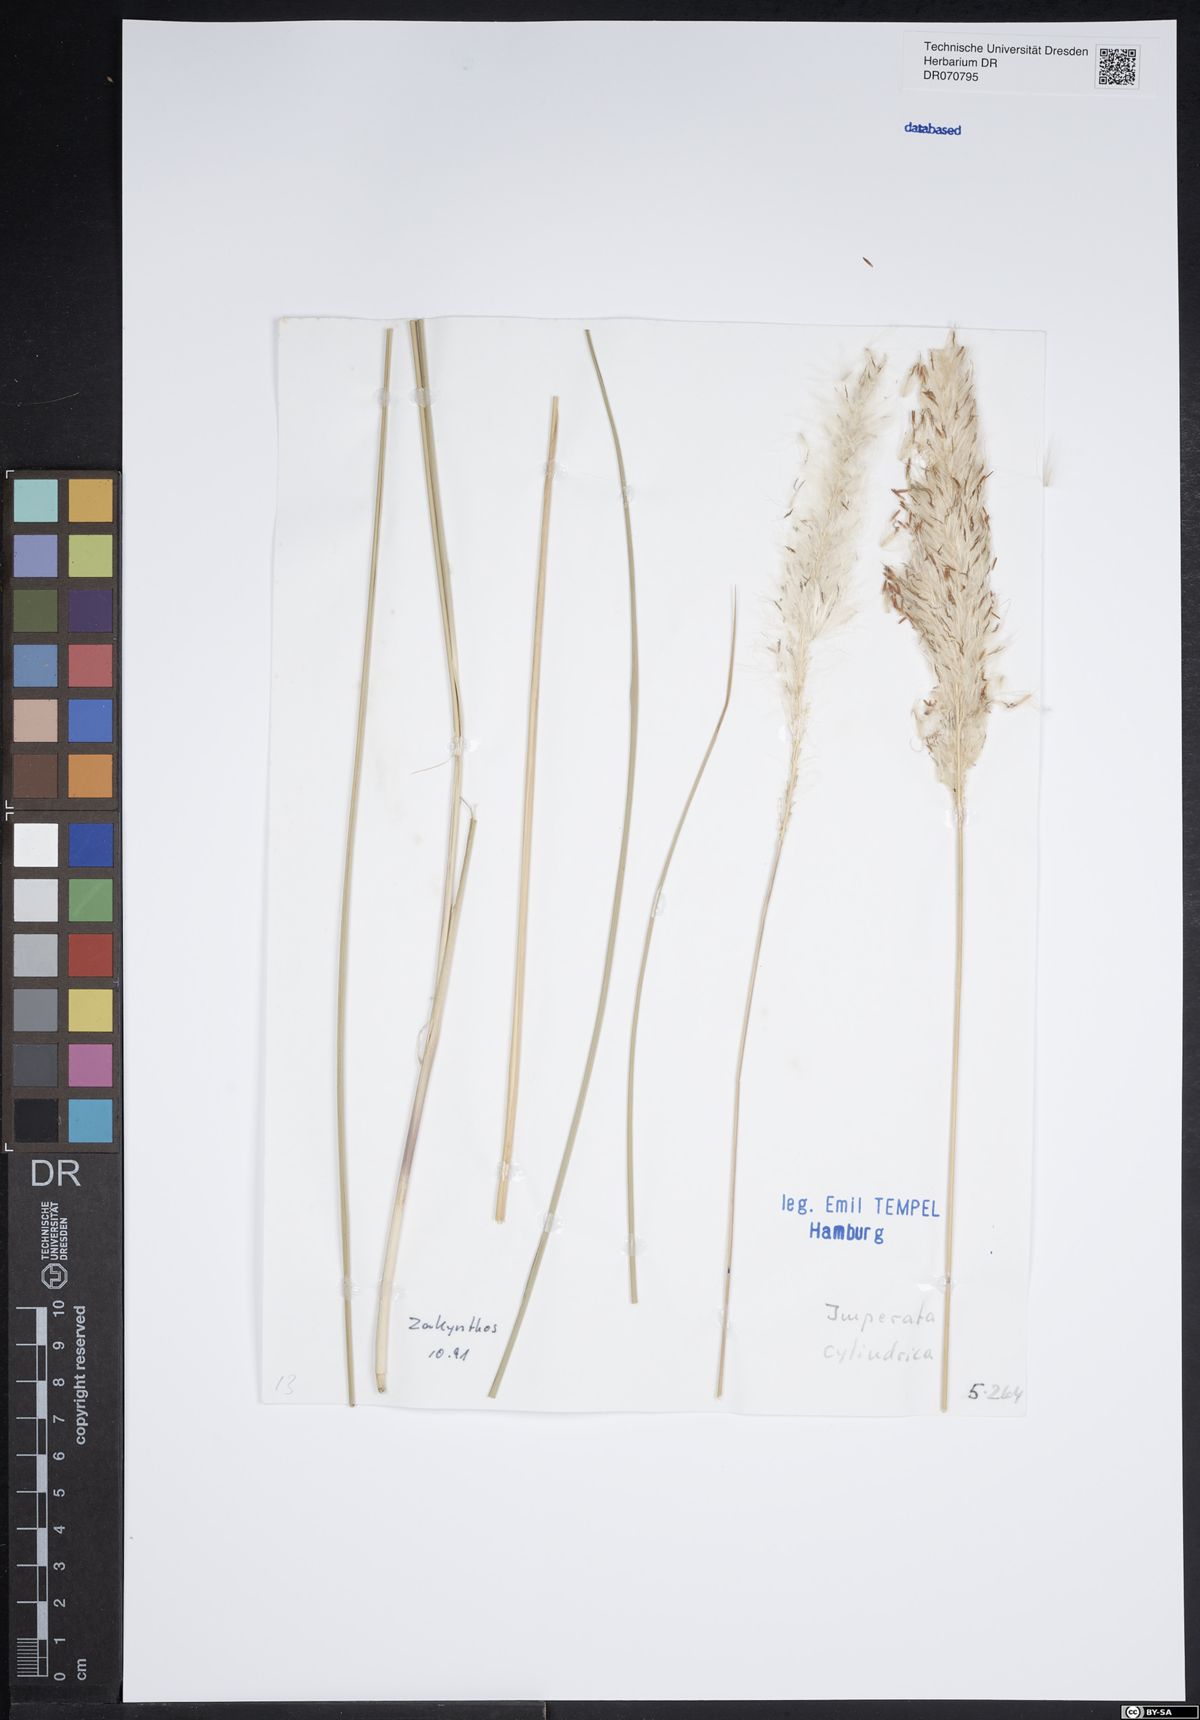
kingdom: Plantae
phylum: Tracheophyta
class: Liliopsida
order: Poales
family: Poaceae
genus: Imperata
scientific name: Imperata cylindrica
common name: Cogongrass
